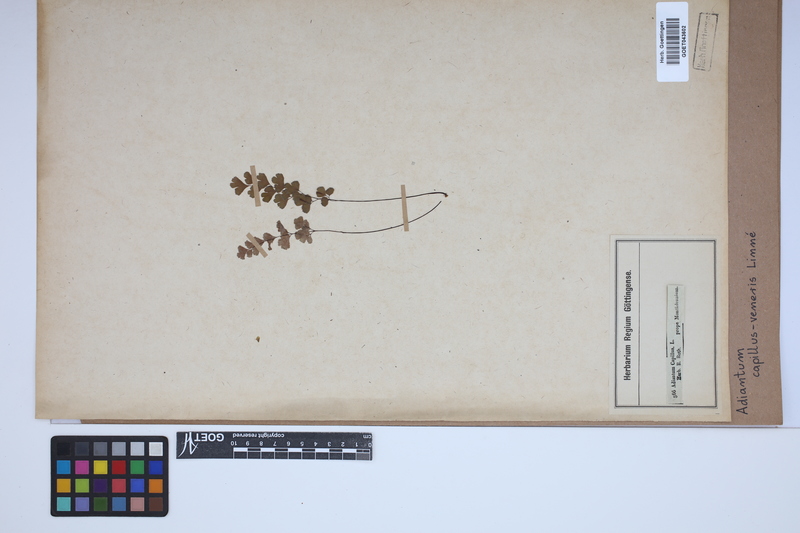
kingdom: Plantae
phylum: Tracheophyta
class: Polypodiopsida
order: Polypodiales
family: Pteridaceae
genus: Adiantum
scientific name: Adiantum capillus-veneris
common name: Maidenhair fern
